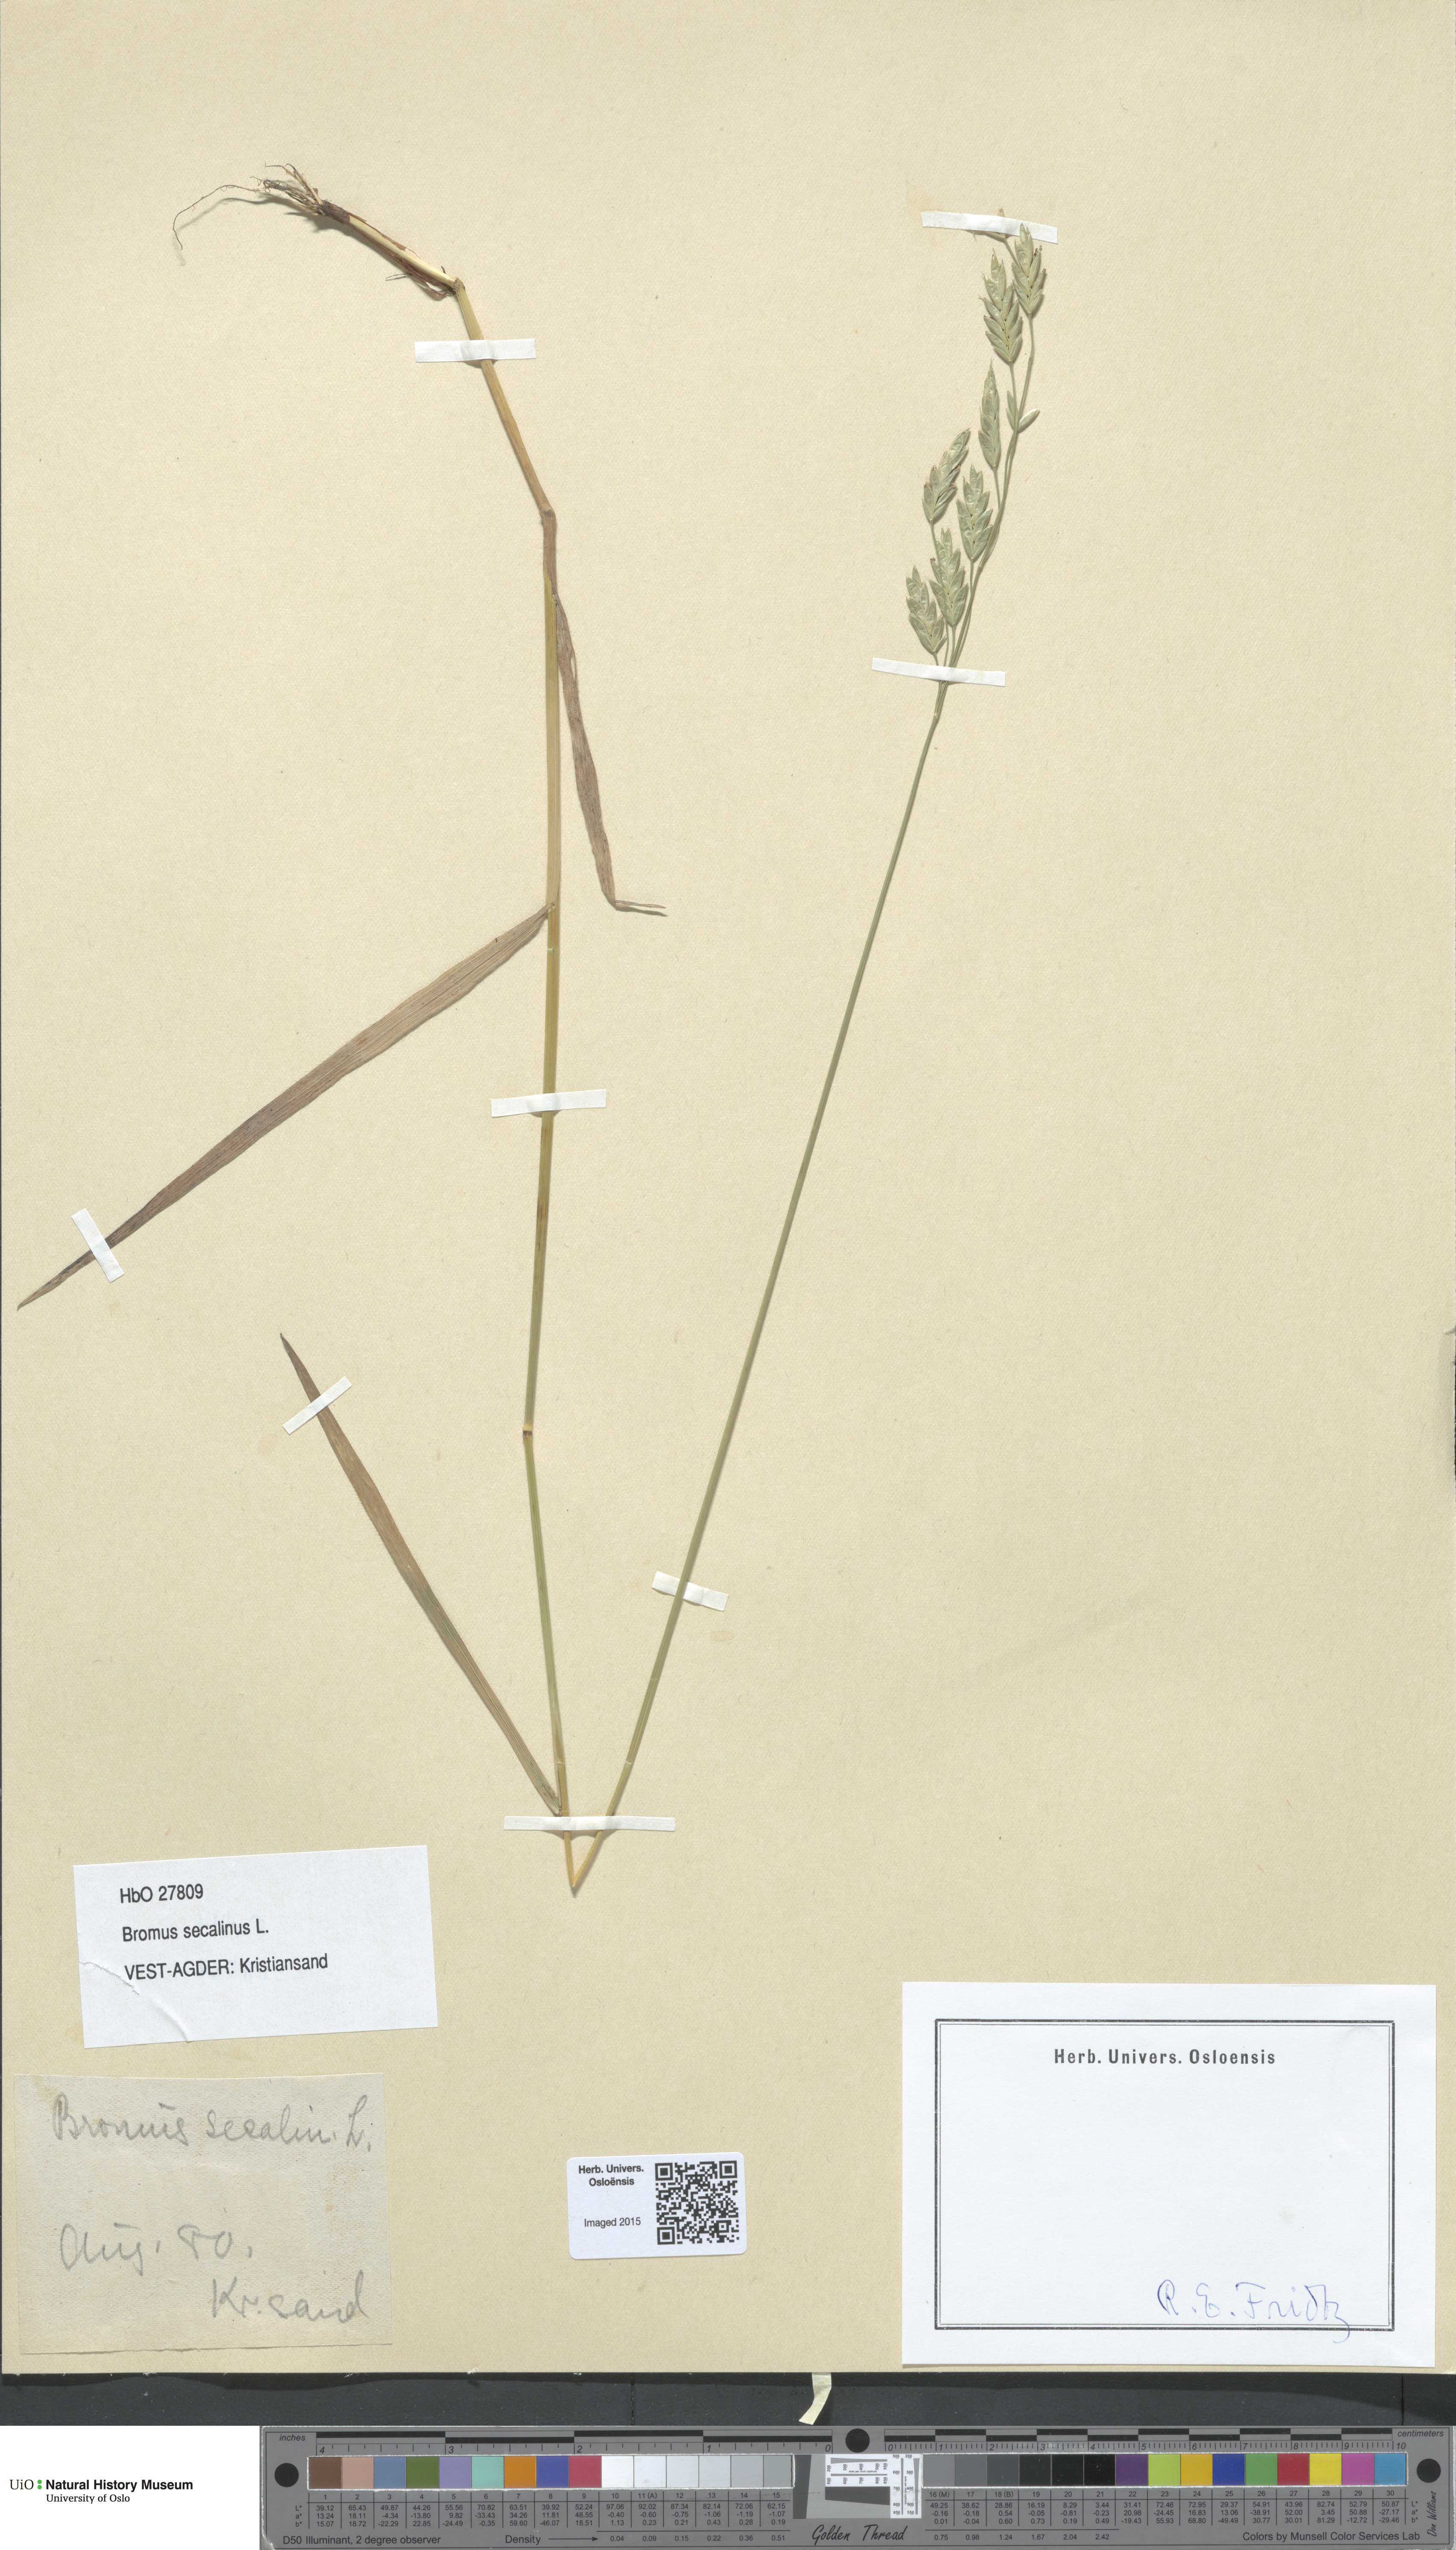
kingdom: Plantae
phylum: Tracheophyta
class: Liliopsida
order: Poales
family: Poaceae
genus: Bromus
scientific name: Bromus secalinus
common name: Rye brome
